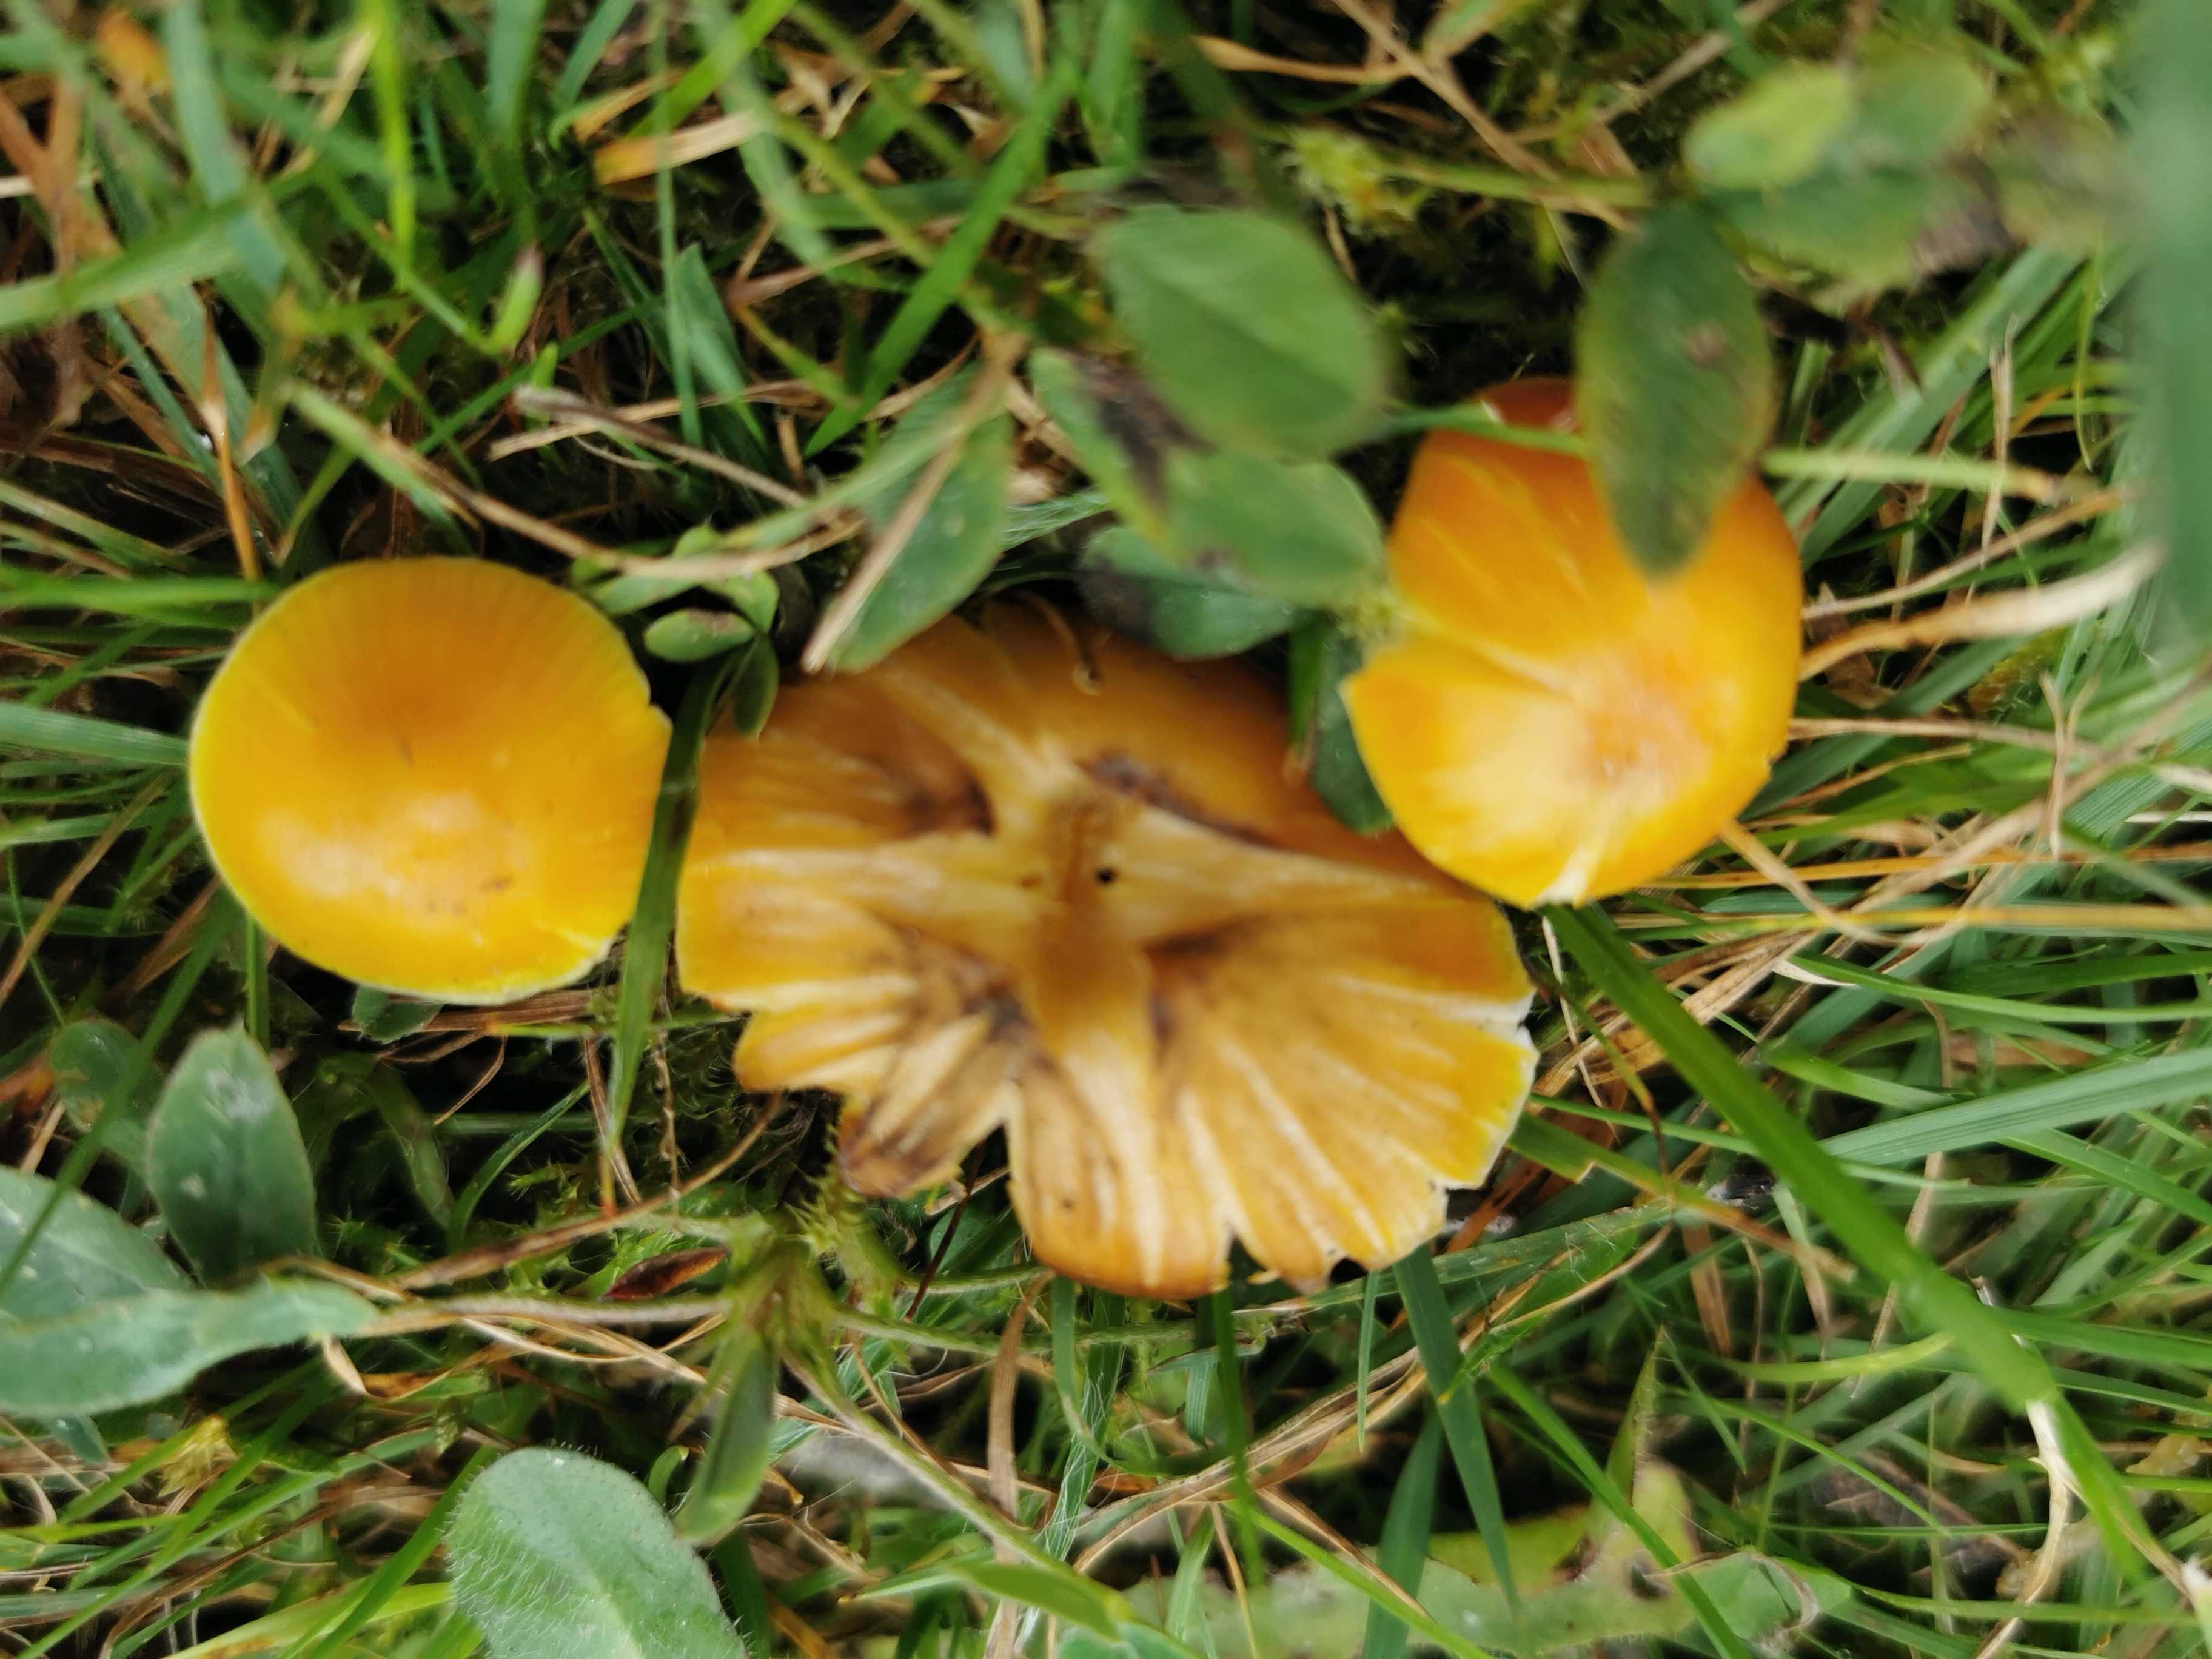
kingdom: Fungi
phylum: Basidiomycota
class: Agaricomycetes
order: Agaricales
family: Hygrophoraceae
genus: Hygrocybe
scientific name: Hygrocybe chlorophana
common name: gul vokshat
